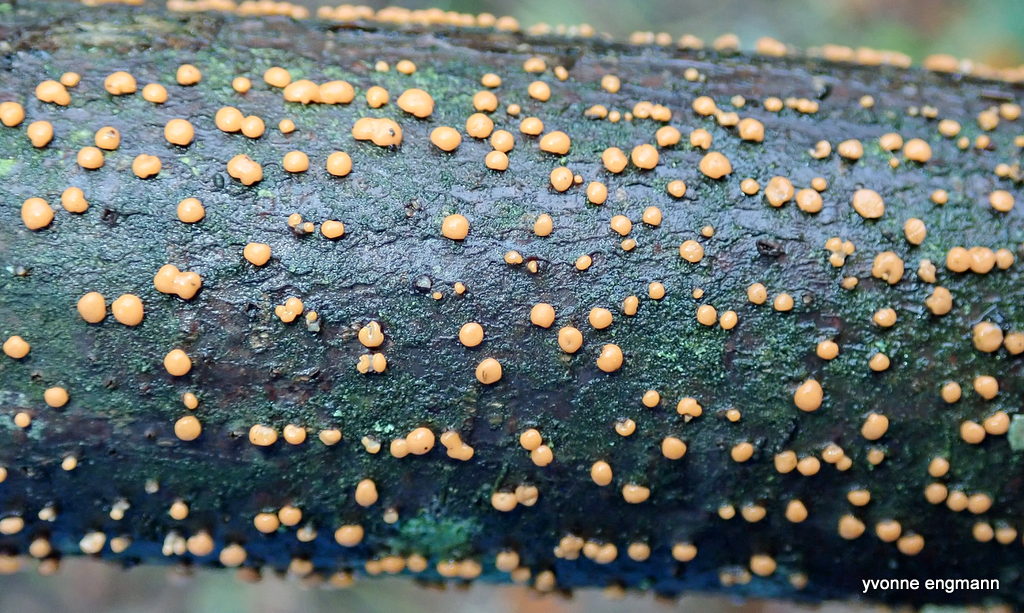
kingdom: Fungi
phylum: Ascomycota
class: Sordariomycetes
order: Hypocreales
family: Nectriaceae
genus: Nectria
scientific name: Nectria cinnabarina
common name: almindelig cinnobersvamp
